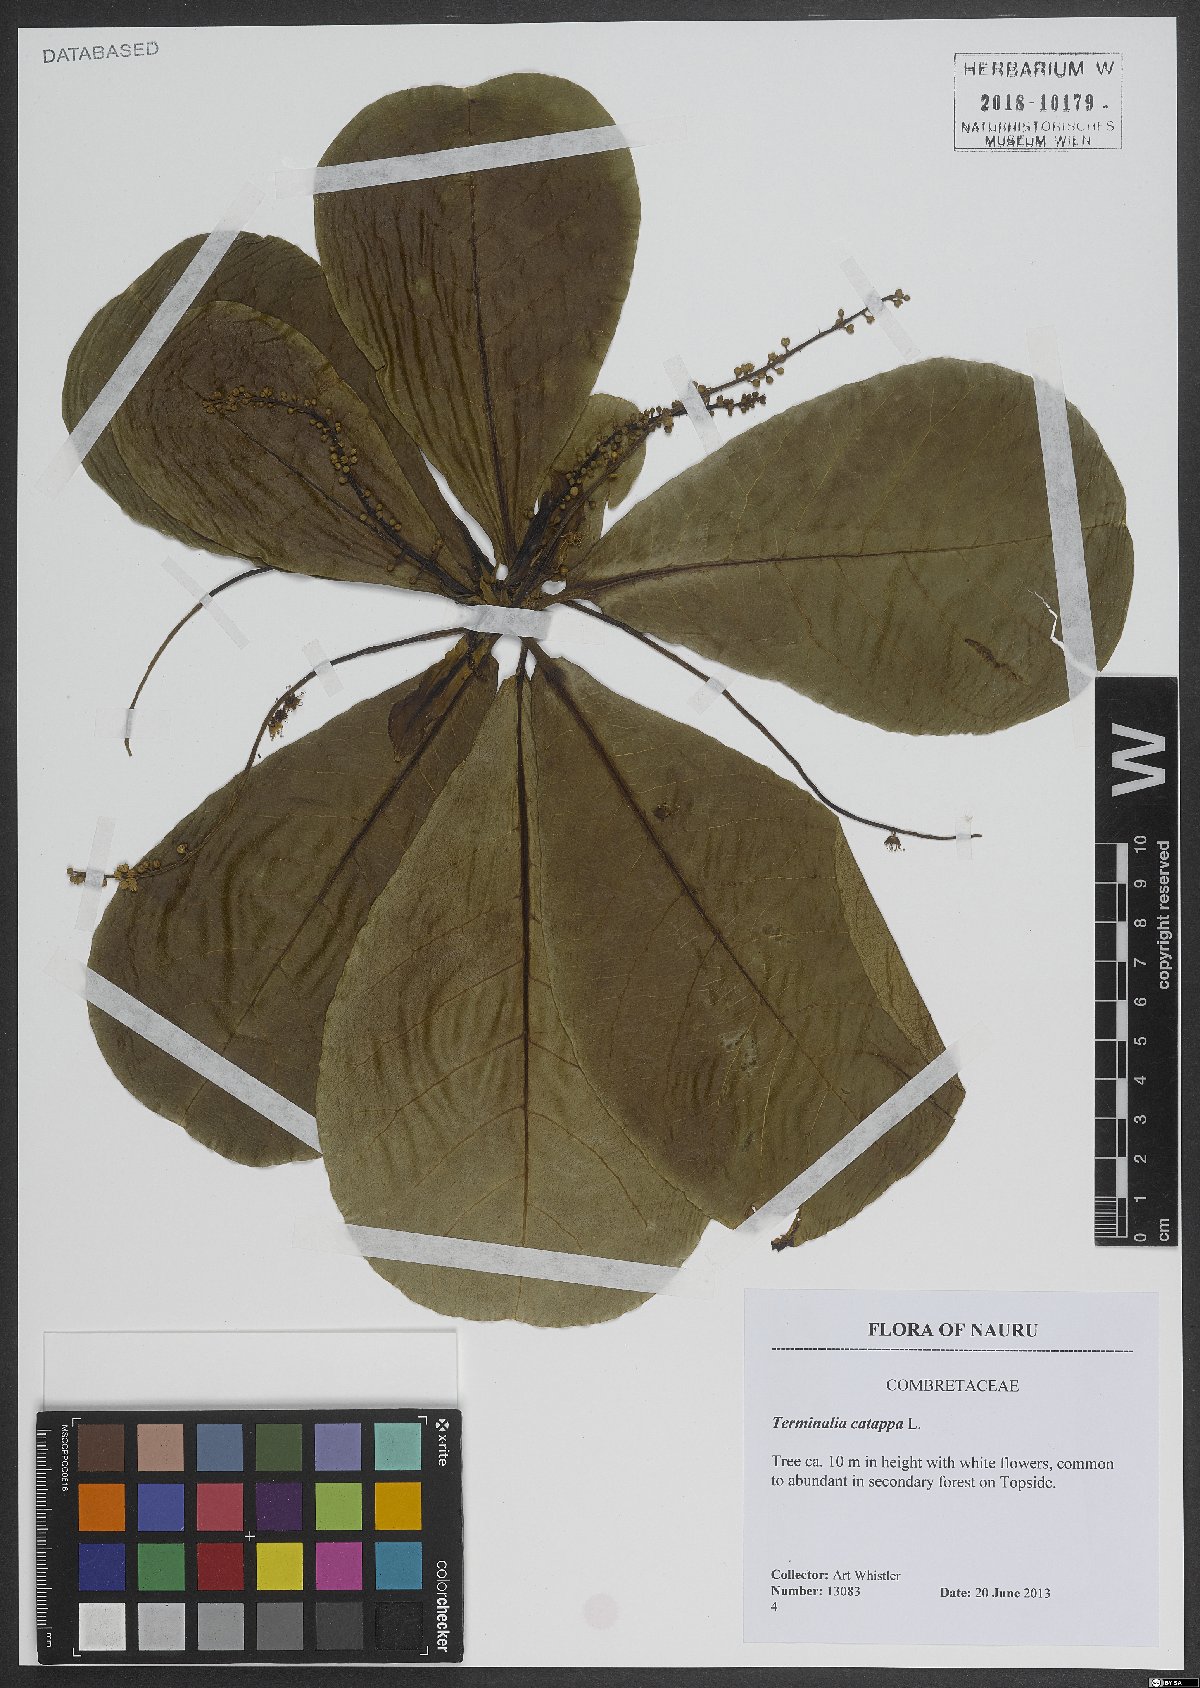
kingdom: Plantae
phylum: Tracheophyta
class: Magnoliopsida
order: Myrtales
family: Combretaceae
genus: Terminalia
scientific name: Terminalia catappa
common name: Tropical almond
